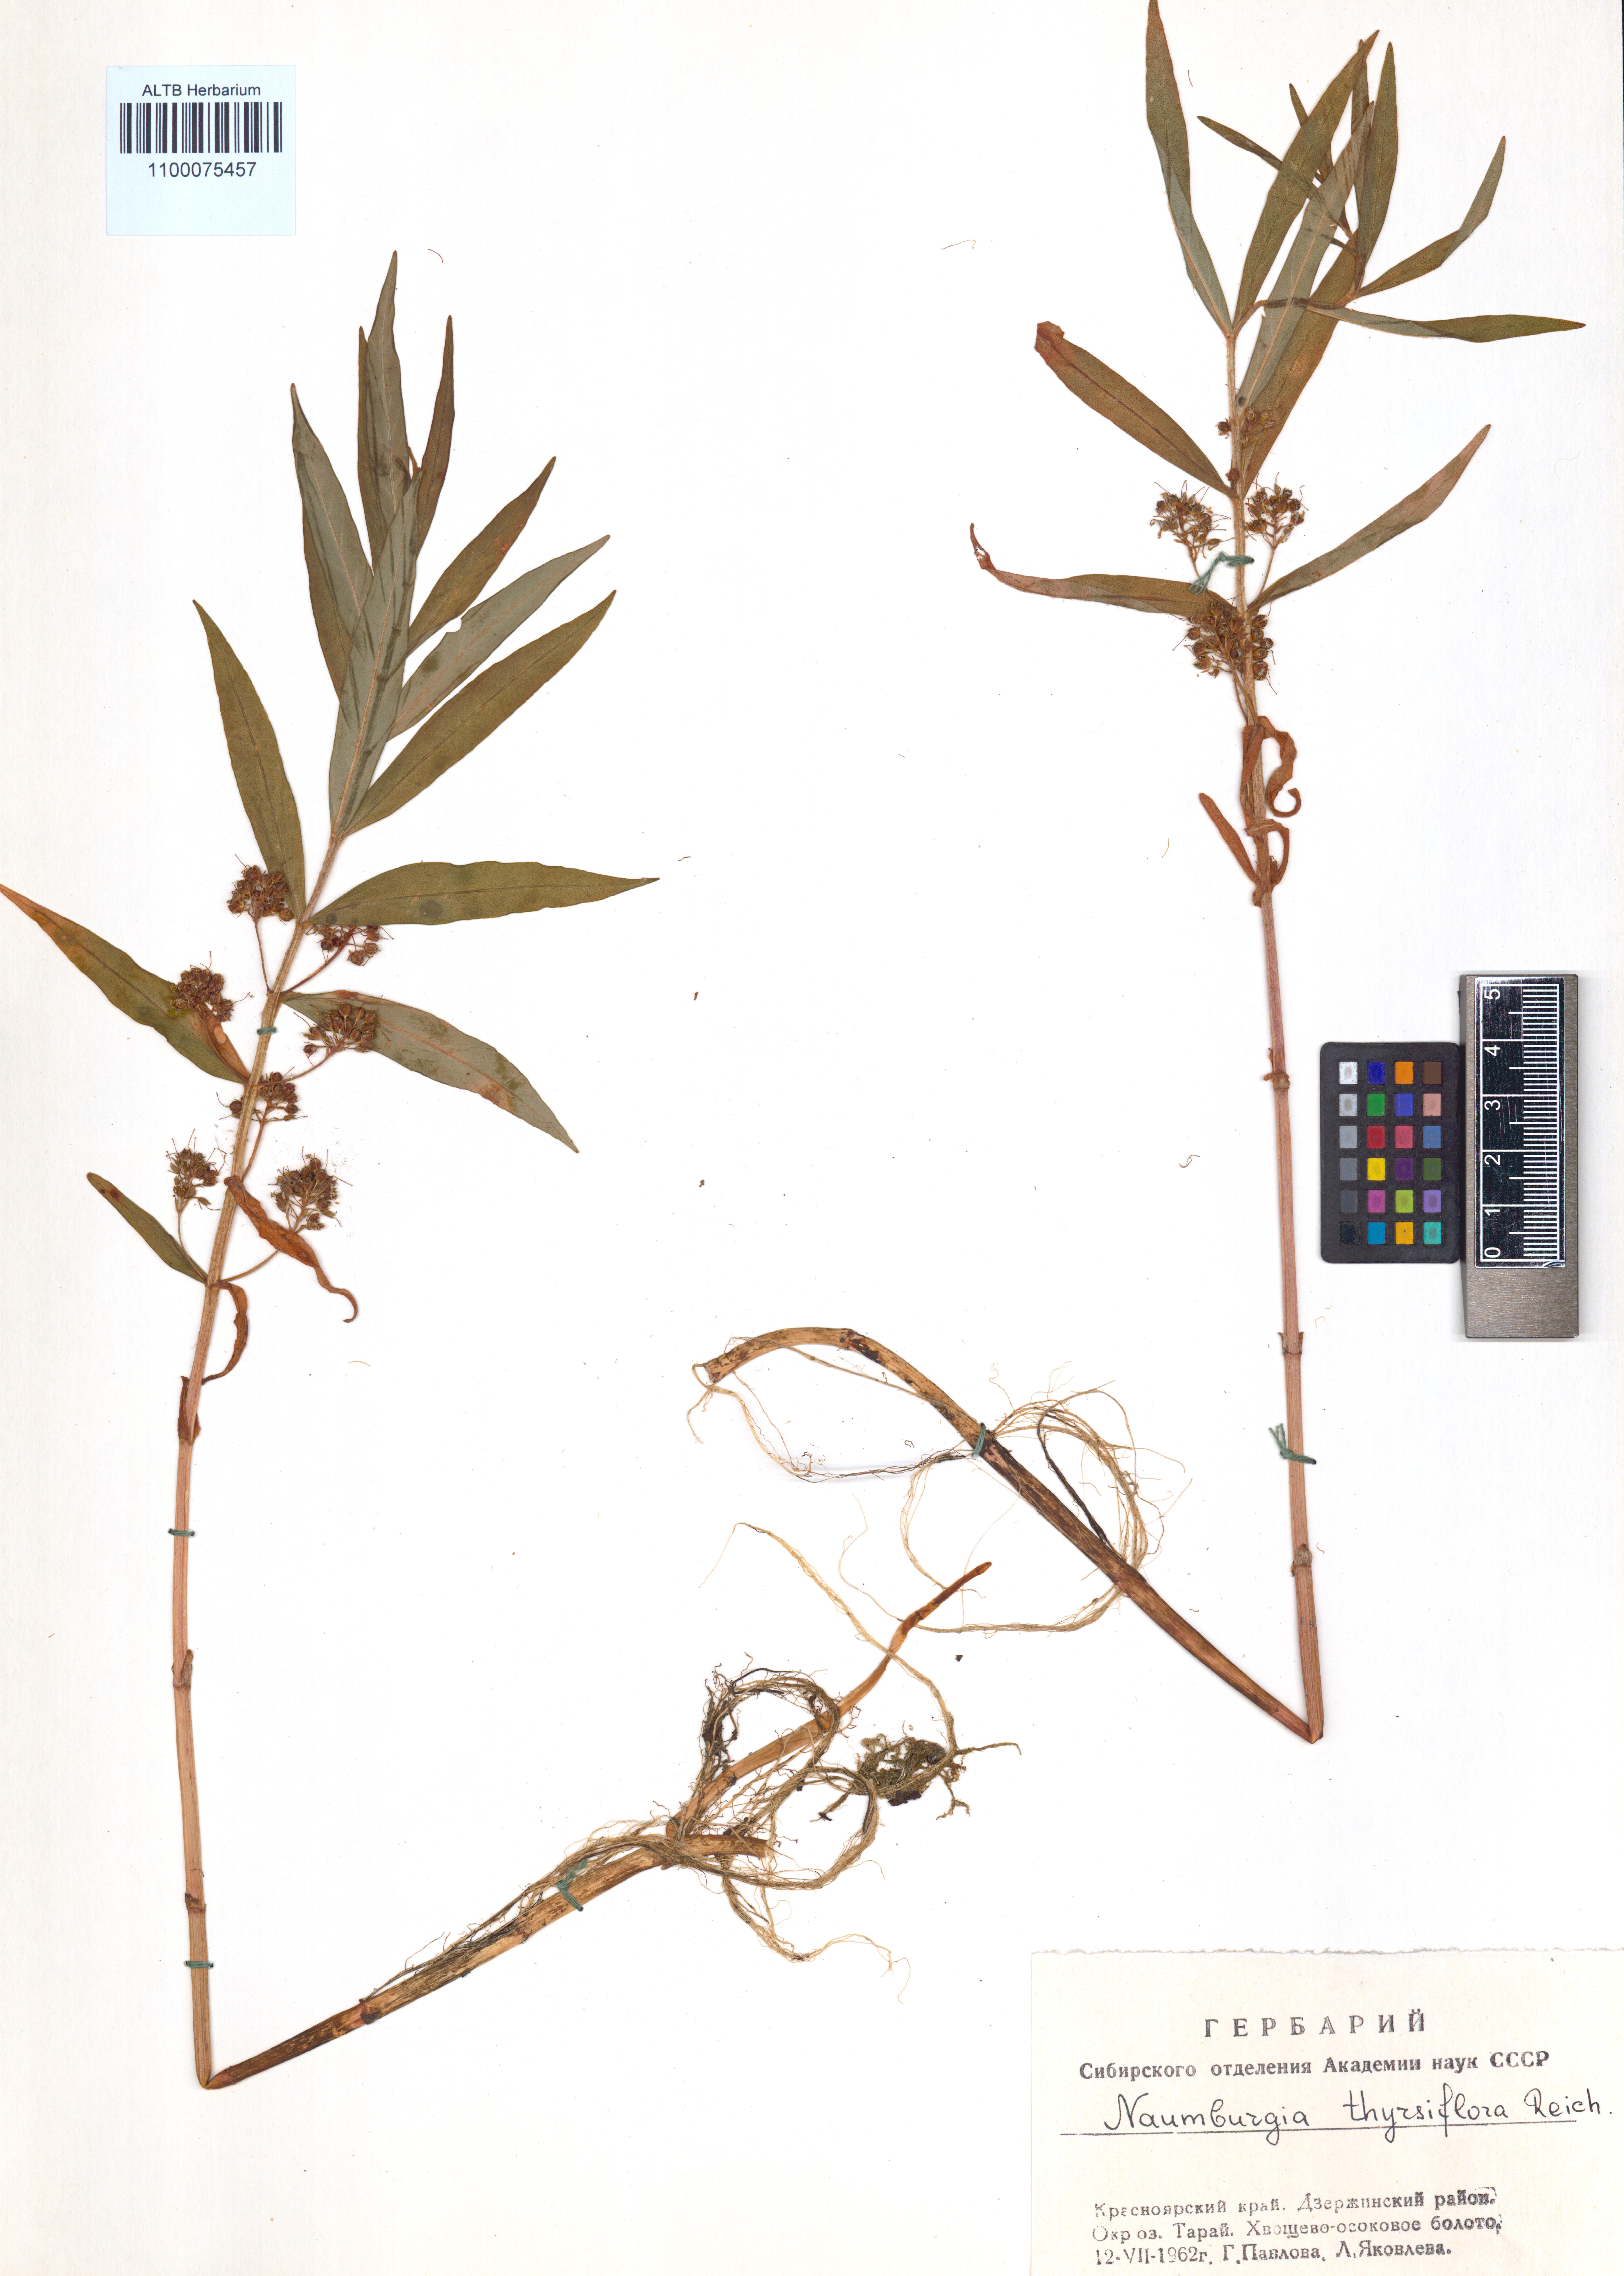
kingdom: Plantae
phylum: Tracheophyta
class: Magnoliopsida
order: Ericales
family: Primulaceae
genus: Lysimachia
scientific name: Lysimachia thyrsiflora
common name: Tufted loosestrife
